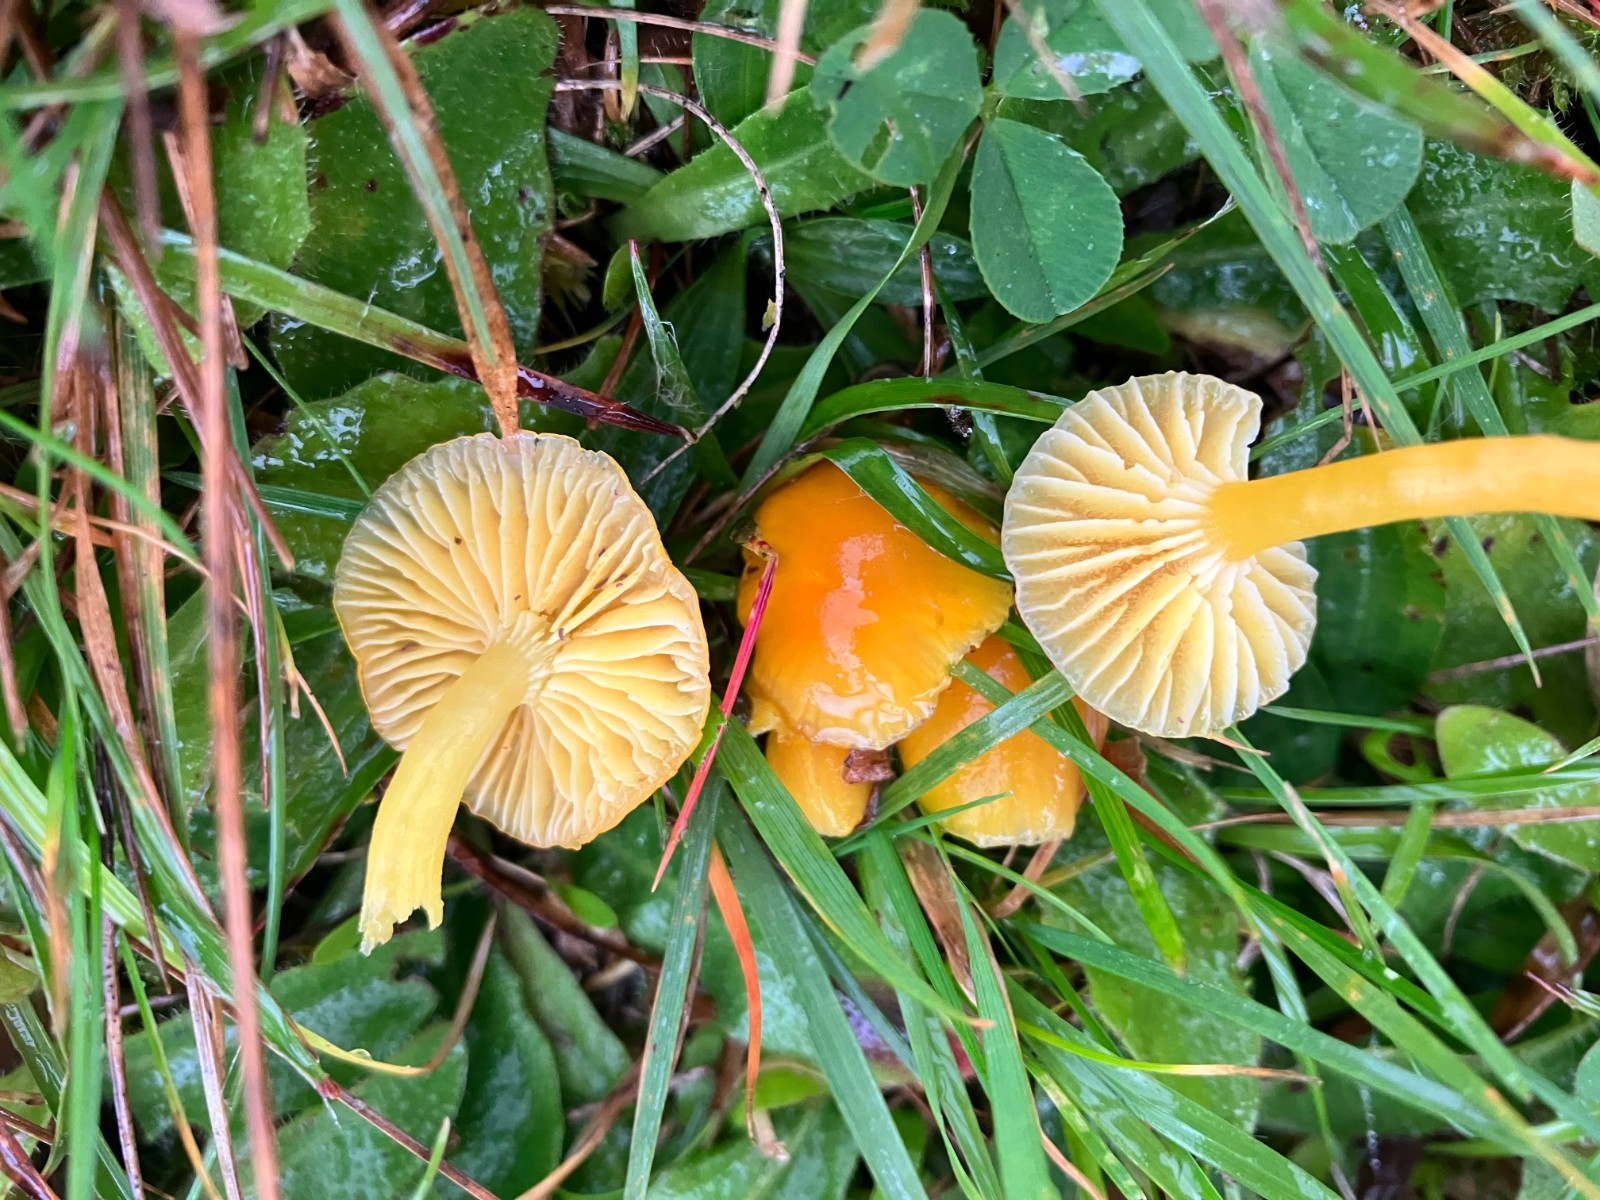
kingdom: Fungi
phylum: Basidiomycota
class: Agaricomycetes
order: Agaricales
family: Hygrophoraceae
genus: Hygrocybe
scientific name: Hygrocybe ceracea
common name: voksgul vokshat
